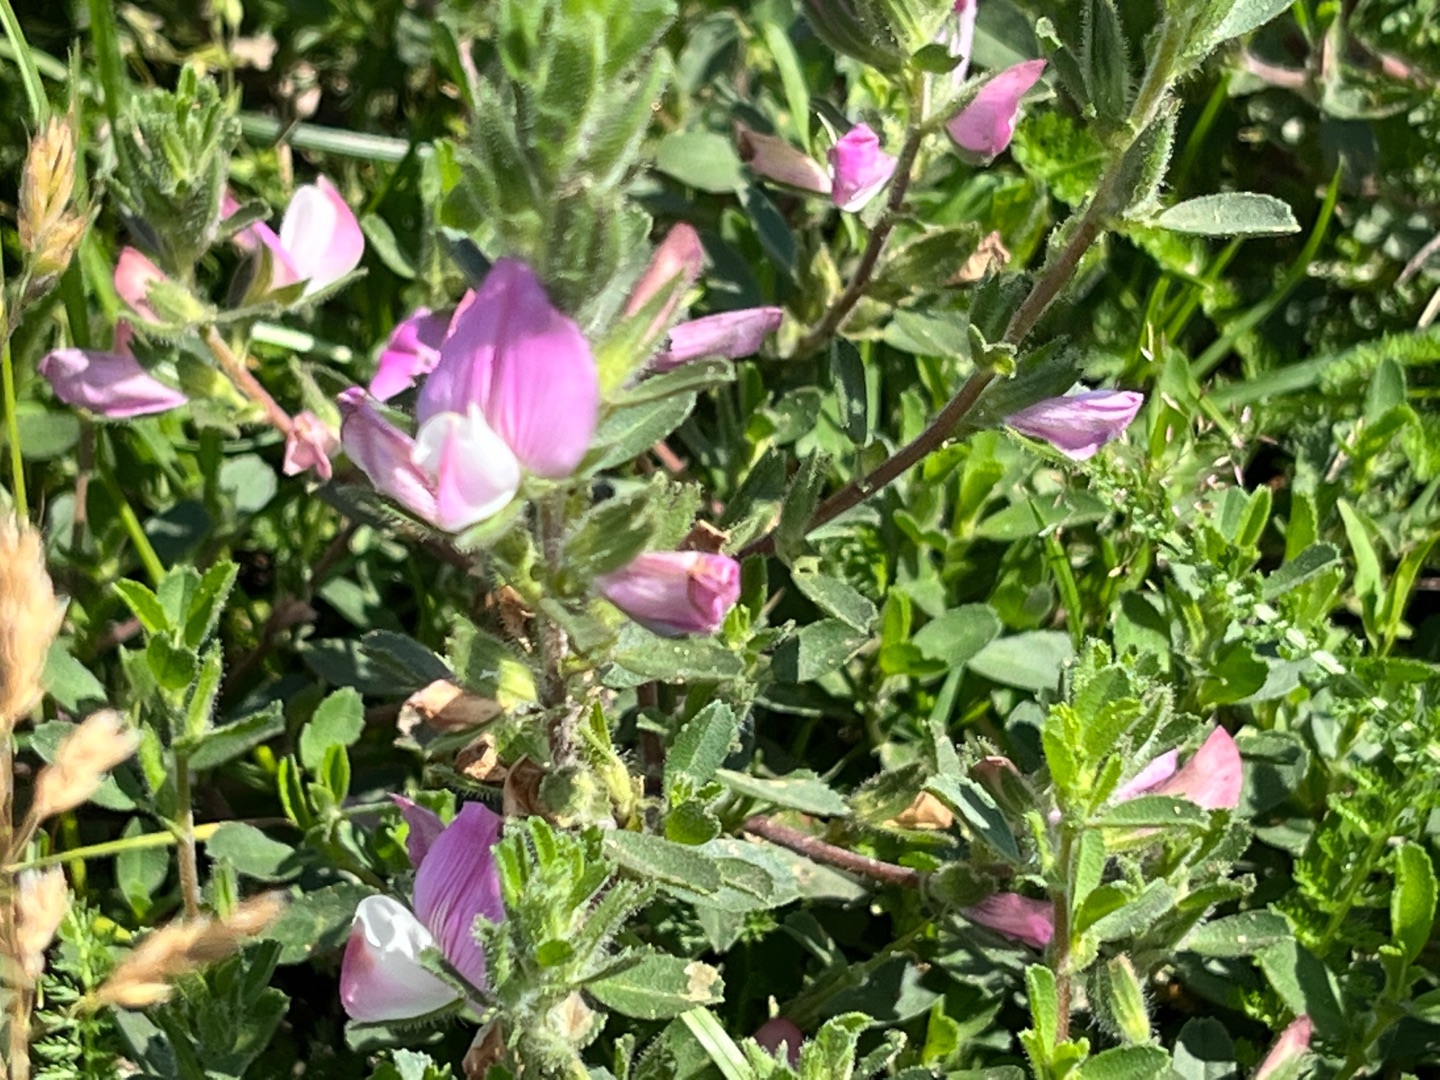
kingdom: Plantae
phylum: Tracheophyta
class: Magnoliopsida
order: Fabales
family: Fabaceae
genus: Ononis
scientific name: Ononis spinosa
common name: Mark-krageklo
